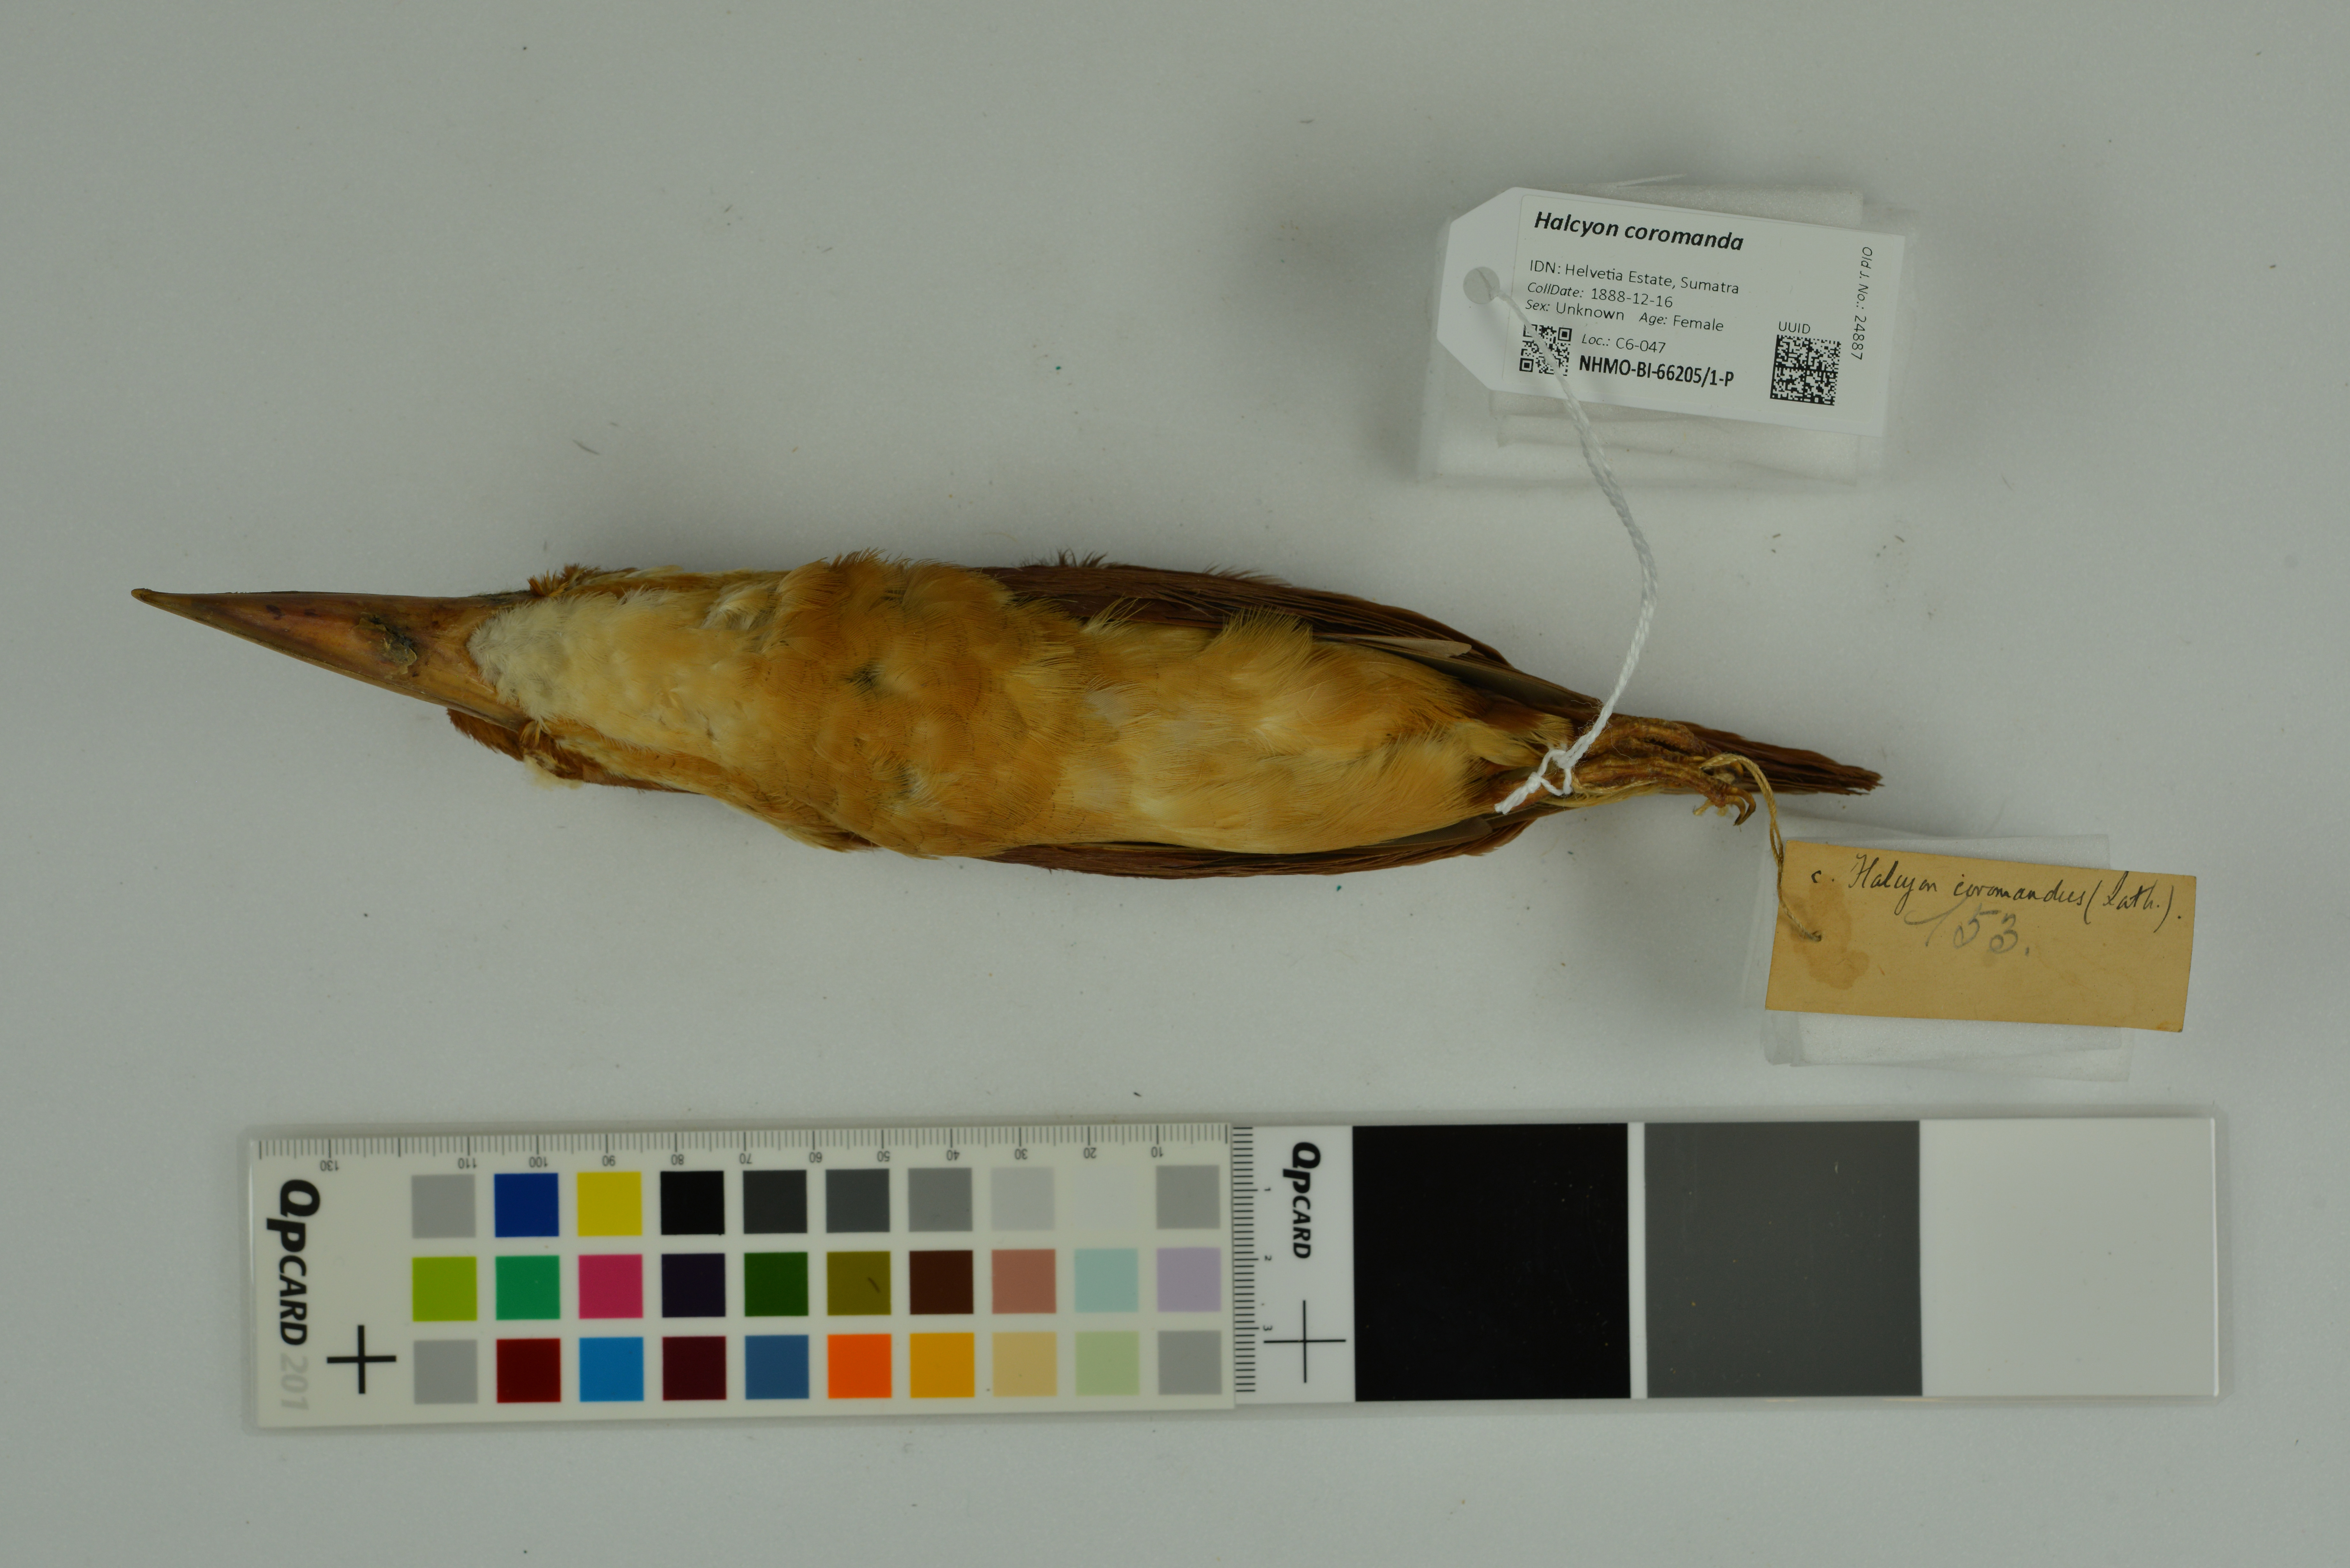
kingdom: Animalia
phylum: Chordata
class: Aves
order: Coraciiformes
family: Alcedinidae
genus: Halcyon
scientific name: Halcyon coromanda
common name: Ruddy kingfisher
